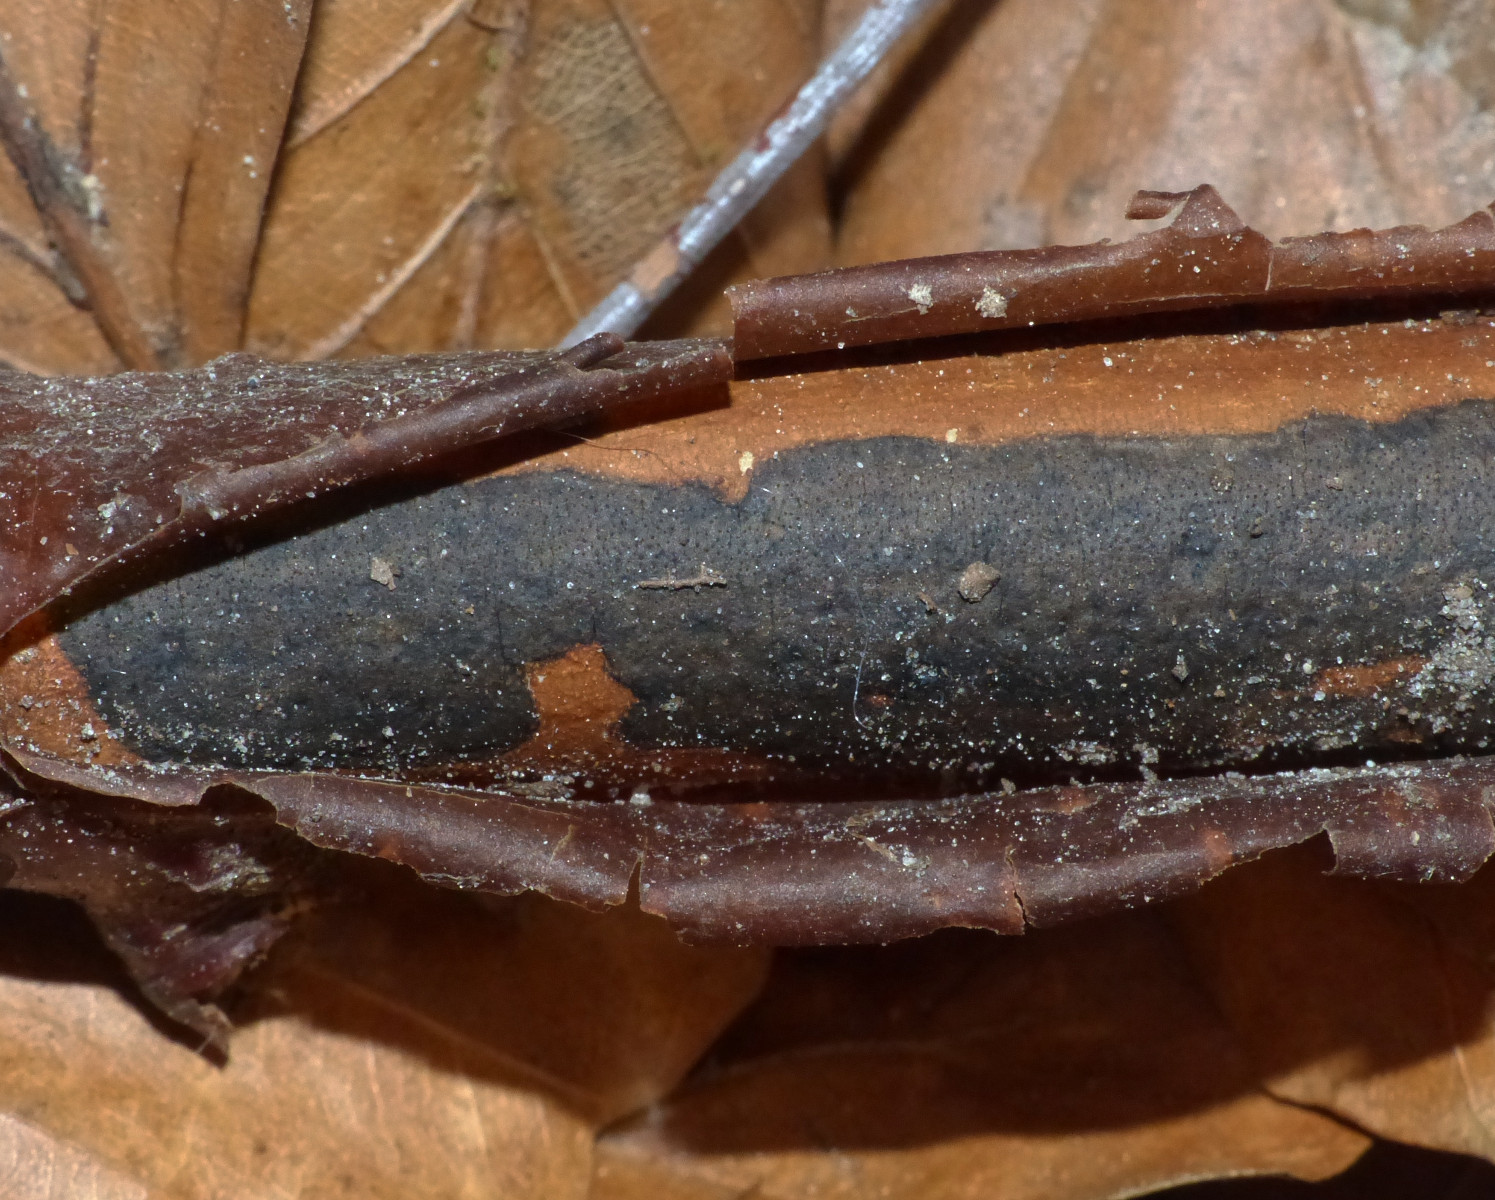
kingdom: Fungi
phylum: Ascomycota
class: Sordariomycetes
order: Xylariales
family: Diatrypaceae
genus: Diatrype
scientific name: Diatrype decorticata
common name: barksprænger-kulskorpe
